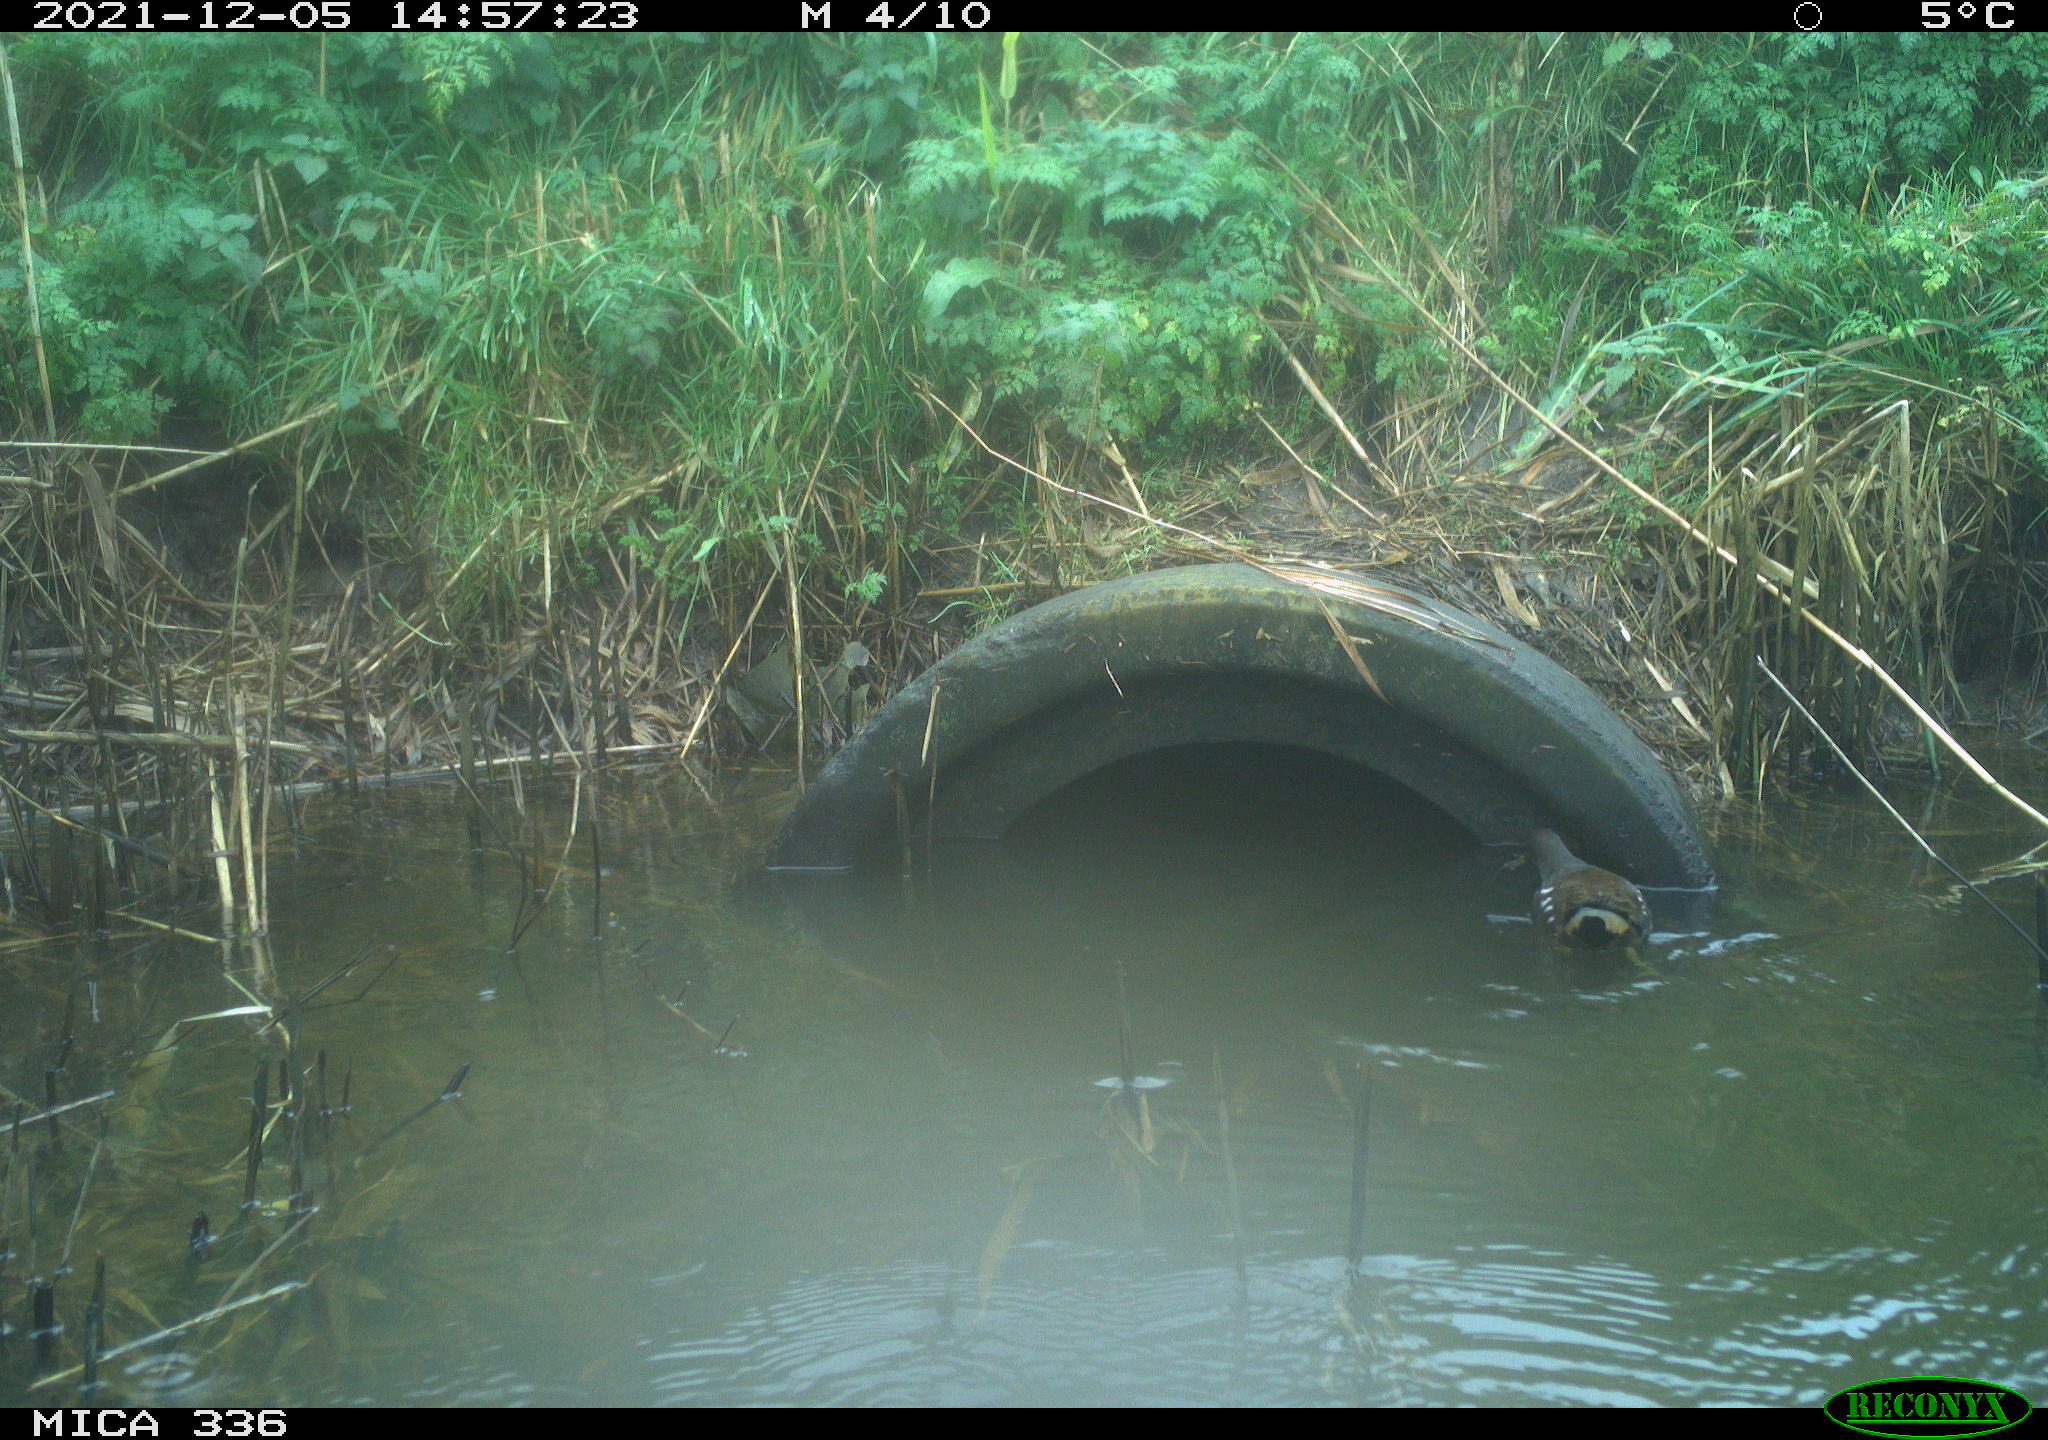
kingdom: Animalia
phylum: Chordata
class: Aves
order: Gruiformes
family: Rallidae
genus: Gallinula
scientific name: Gallinula chloropus
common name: Common moorhen
